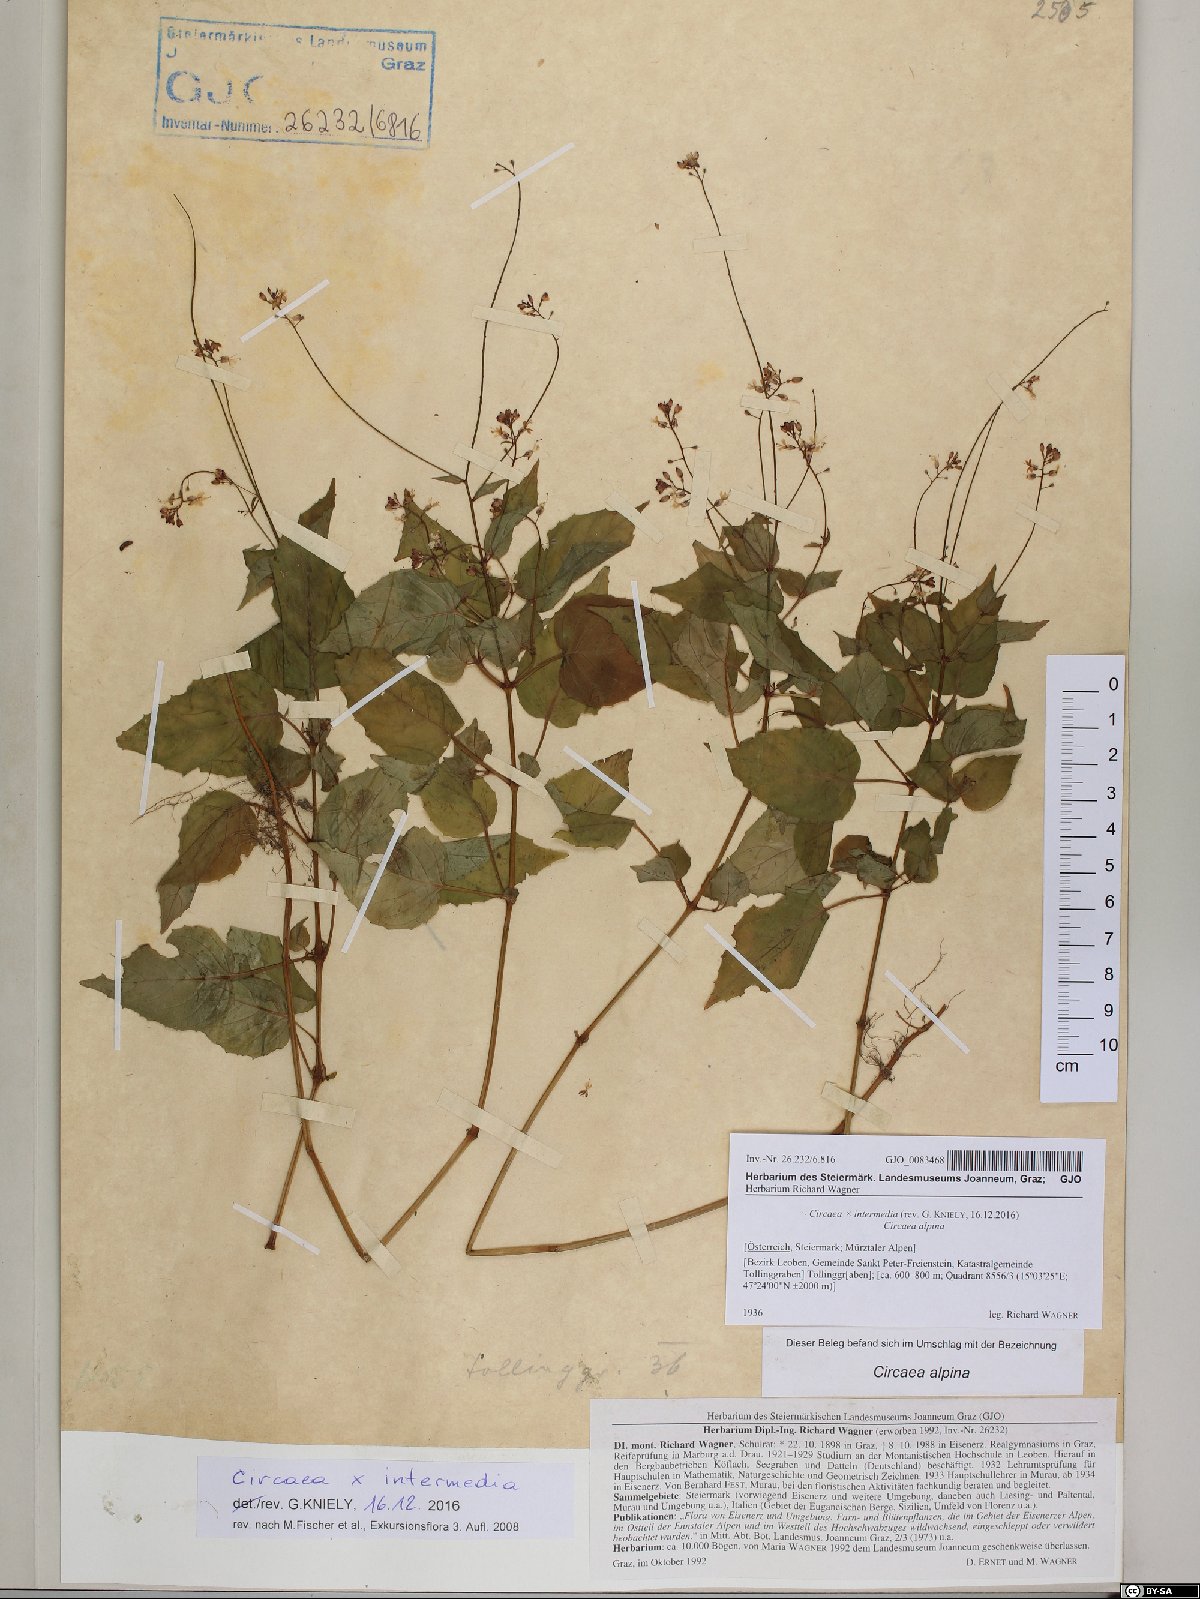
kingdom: Plantae
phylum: Tracheophyta
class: Magnoliopsida
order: Myrtales
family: Onagraceae
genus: Circaea
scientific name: Circaea intermedia
